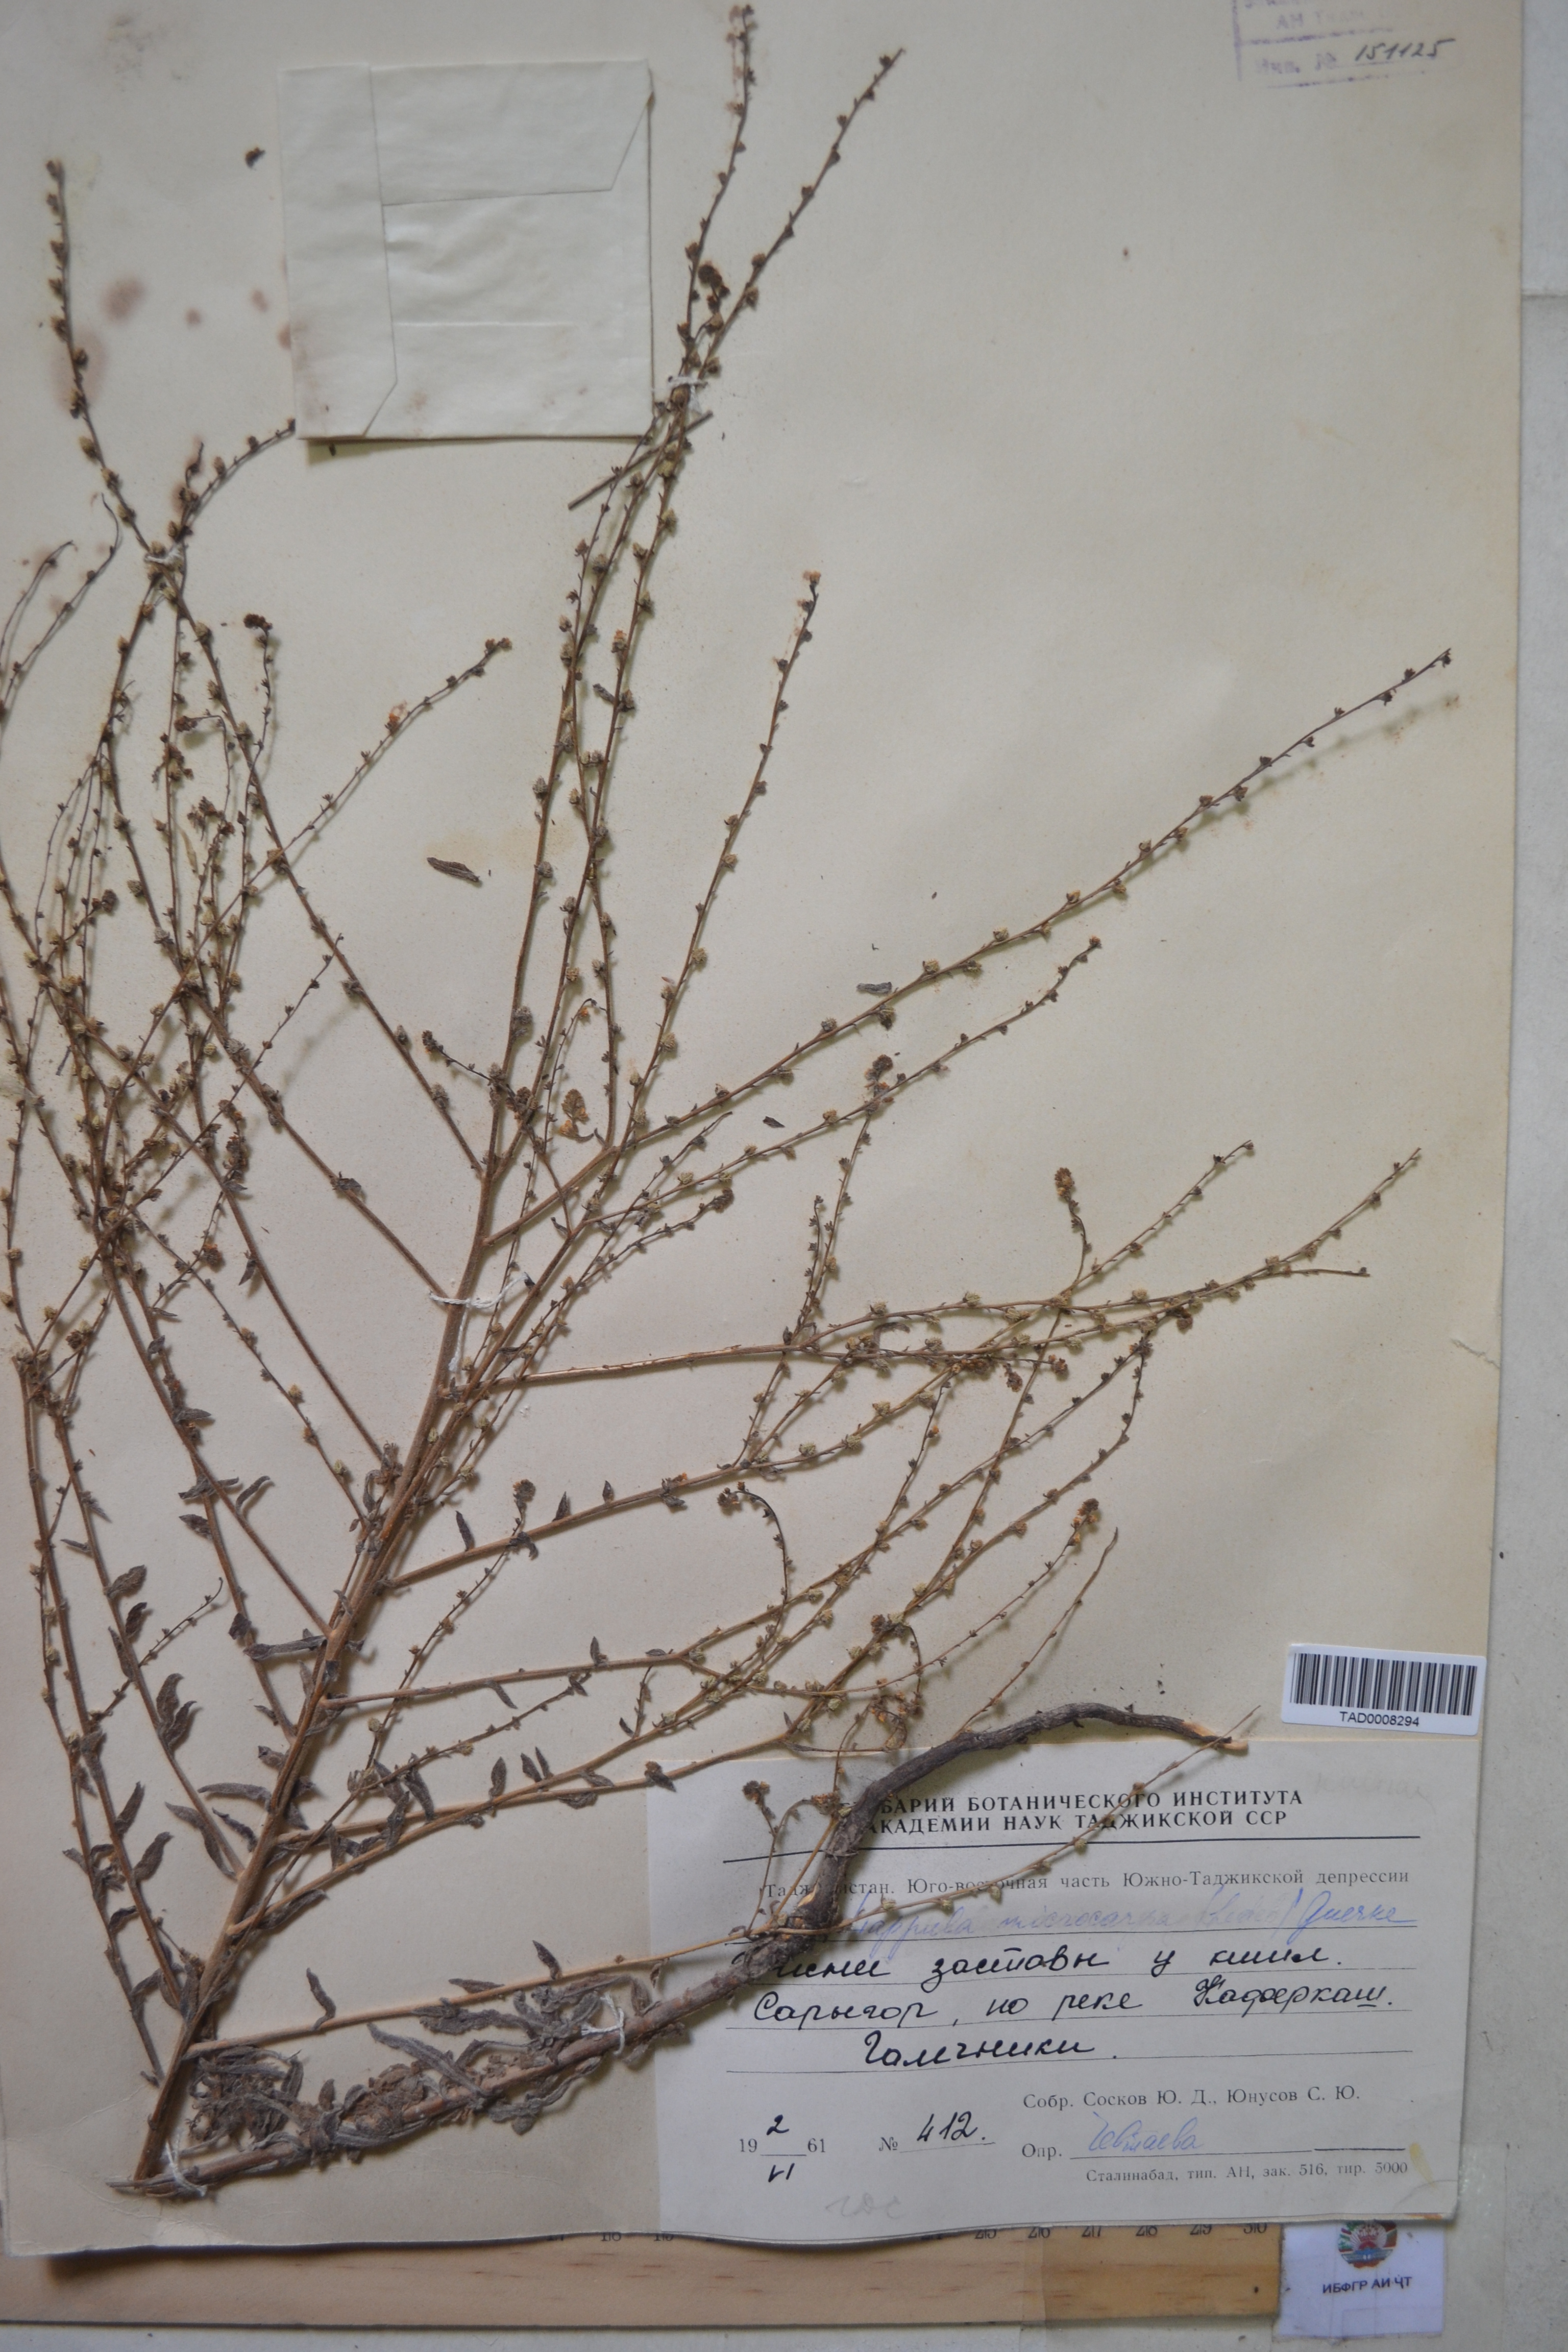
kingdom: Plantae
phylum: Tracheophyta
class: Magnoliopsida
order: Boraginales
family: Boraginaceae
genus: Lappula
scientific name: Lappula microcarpa
